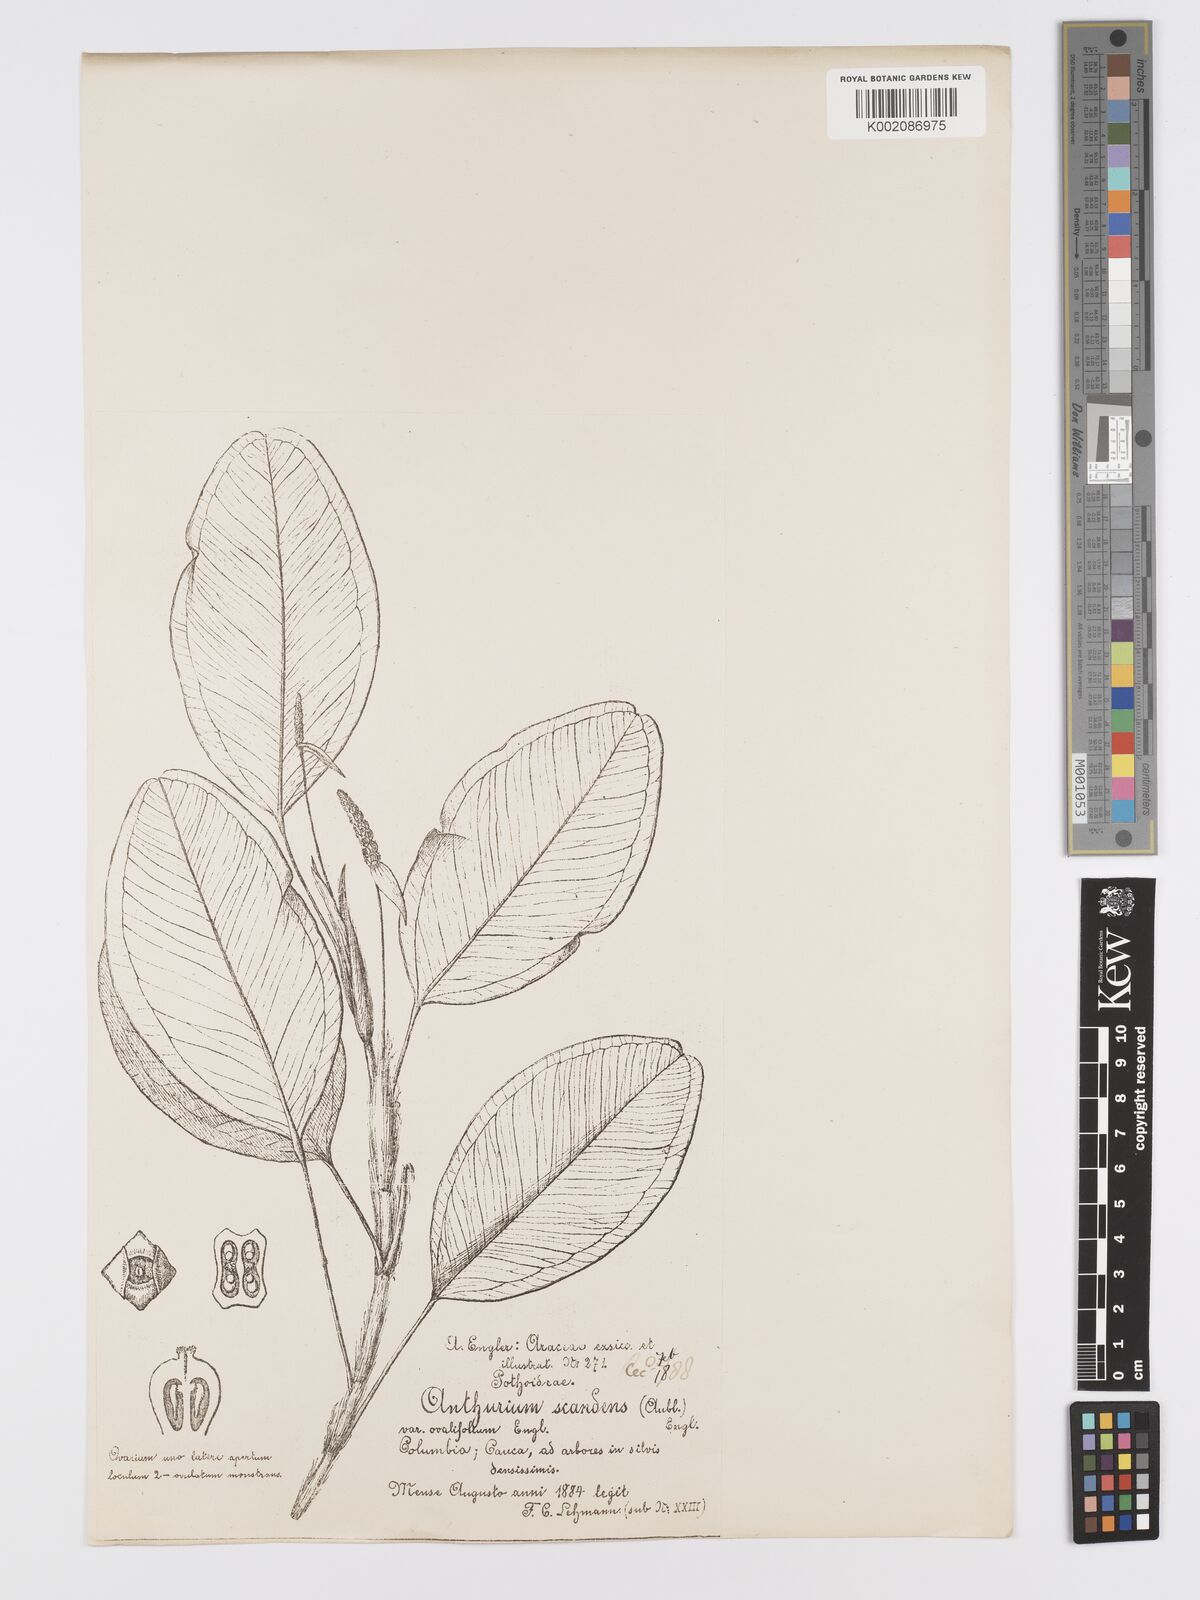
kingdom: Plantae
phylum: Tracheophyta
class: Liliopsida
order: Alismatales
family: Araceae
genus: Anthurium
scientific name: Anthurium scandens
